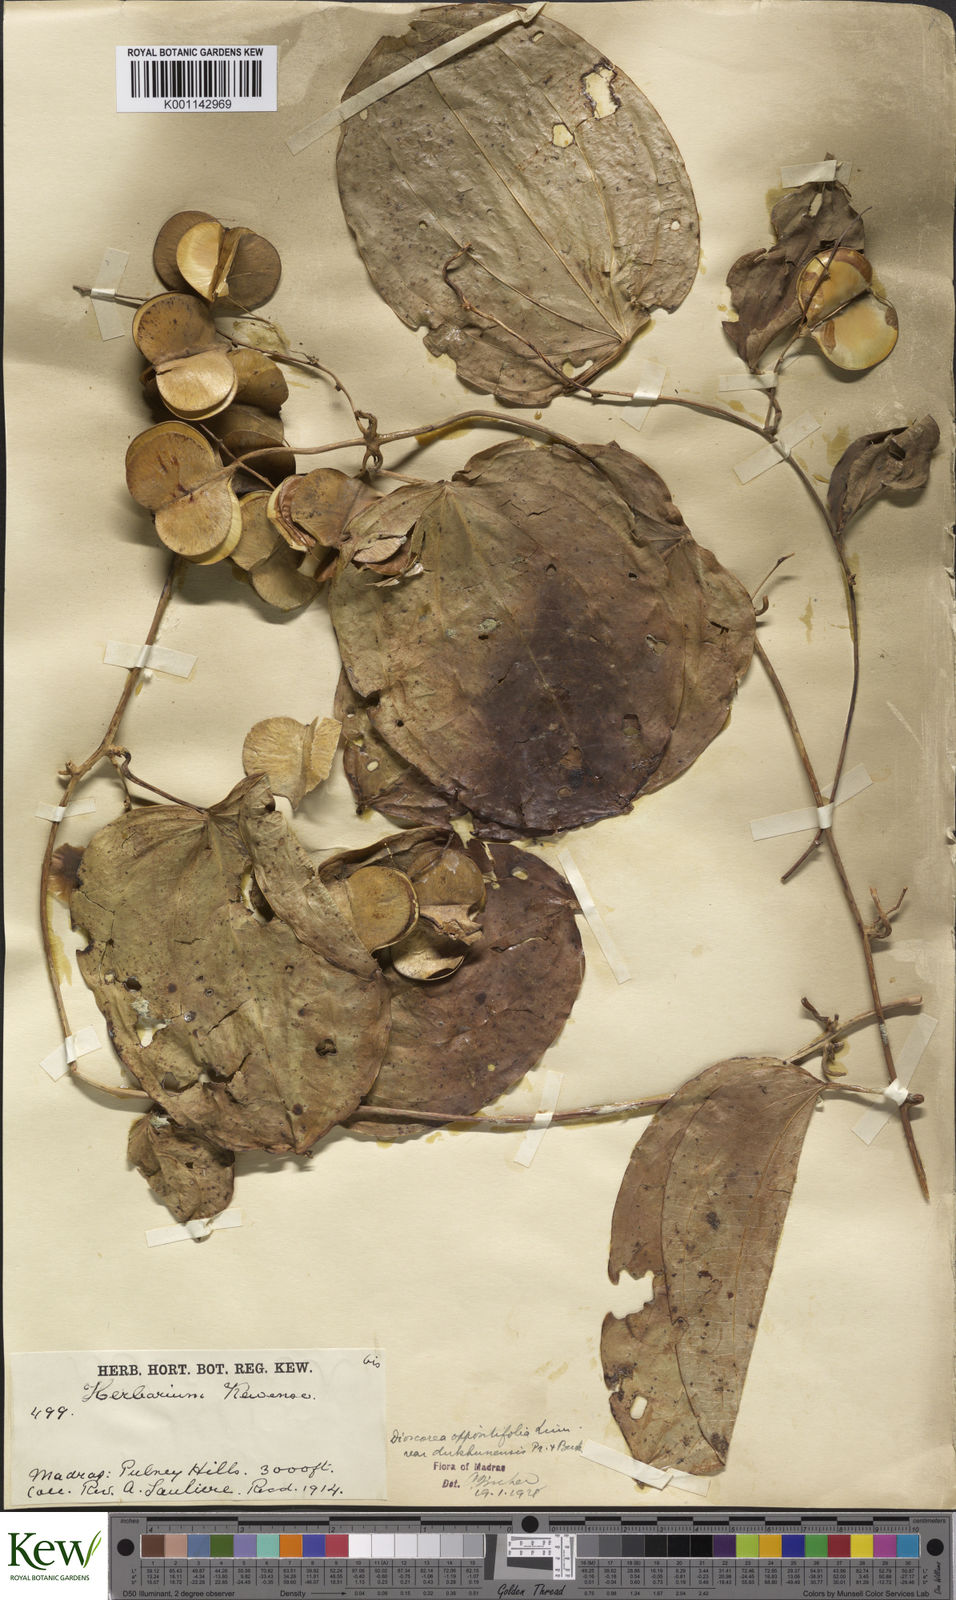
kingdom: Plantae
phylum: Tracheophyta
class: Liliopsida
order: Dioscoreales
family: Dioscoreaceae
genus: Dioscorea
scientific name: Dioscorea oppositifolia
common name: Chinese yam
